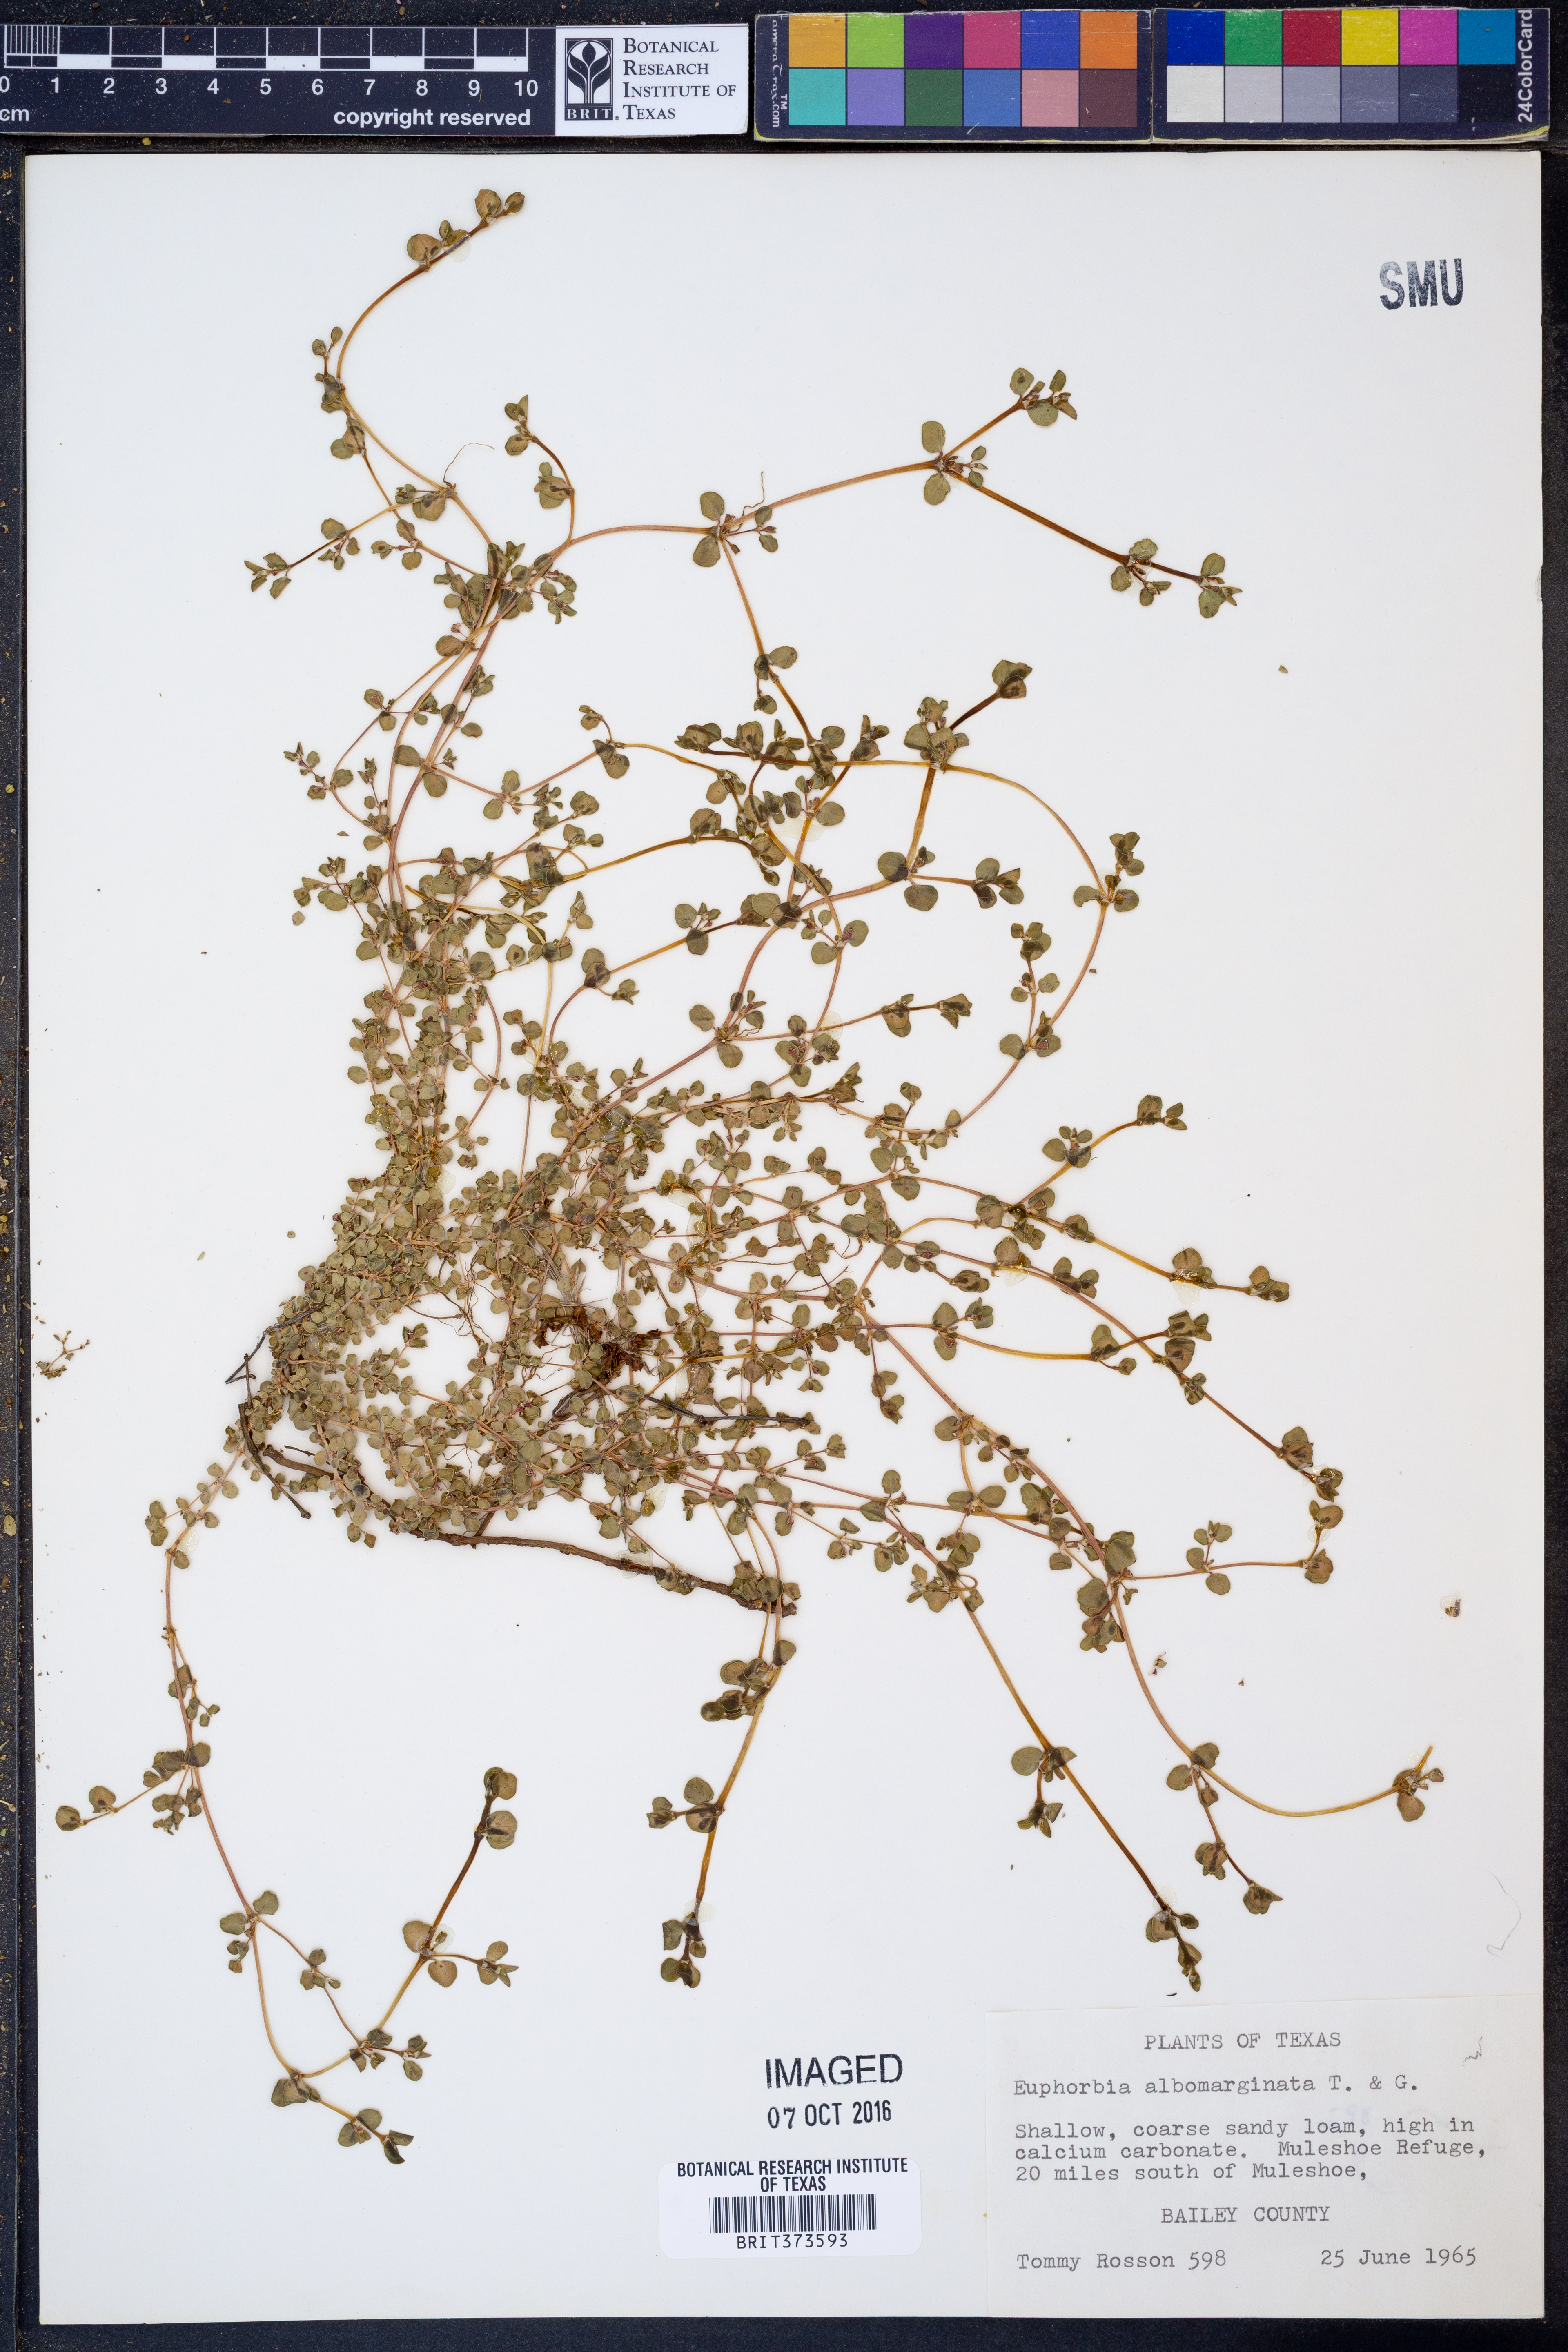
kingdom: Plantae
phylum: Tracheophyta
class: Magnoliopsida
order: Malpighiales
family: Euphorbiaceae
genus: Euphorbia
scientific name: Euphorbia albomarginata
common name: Whitemargin sandmat
